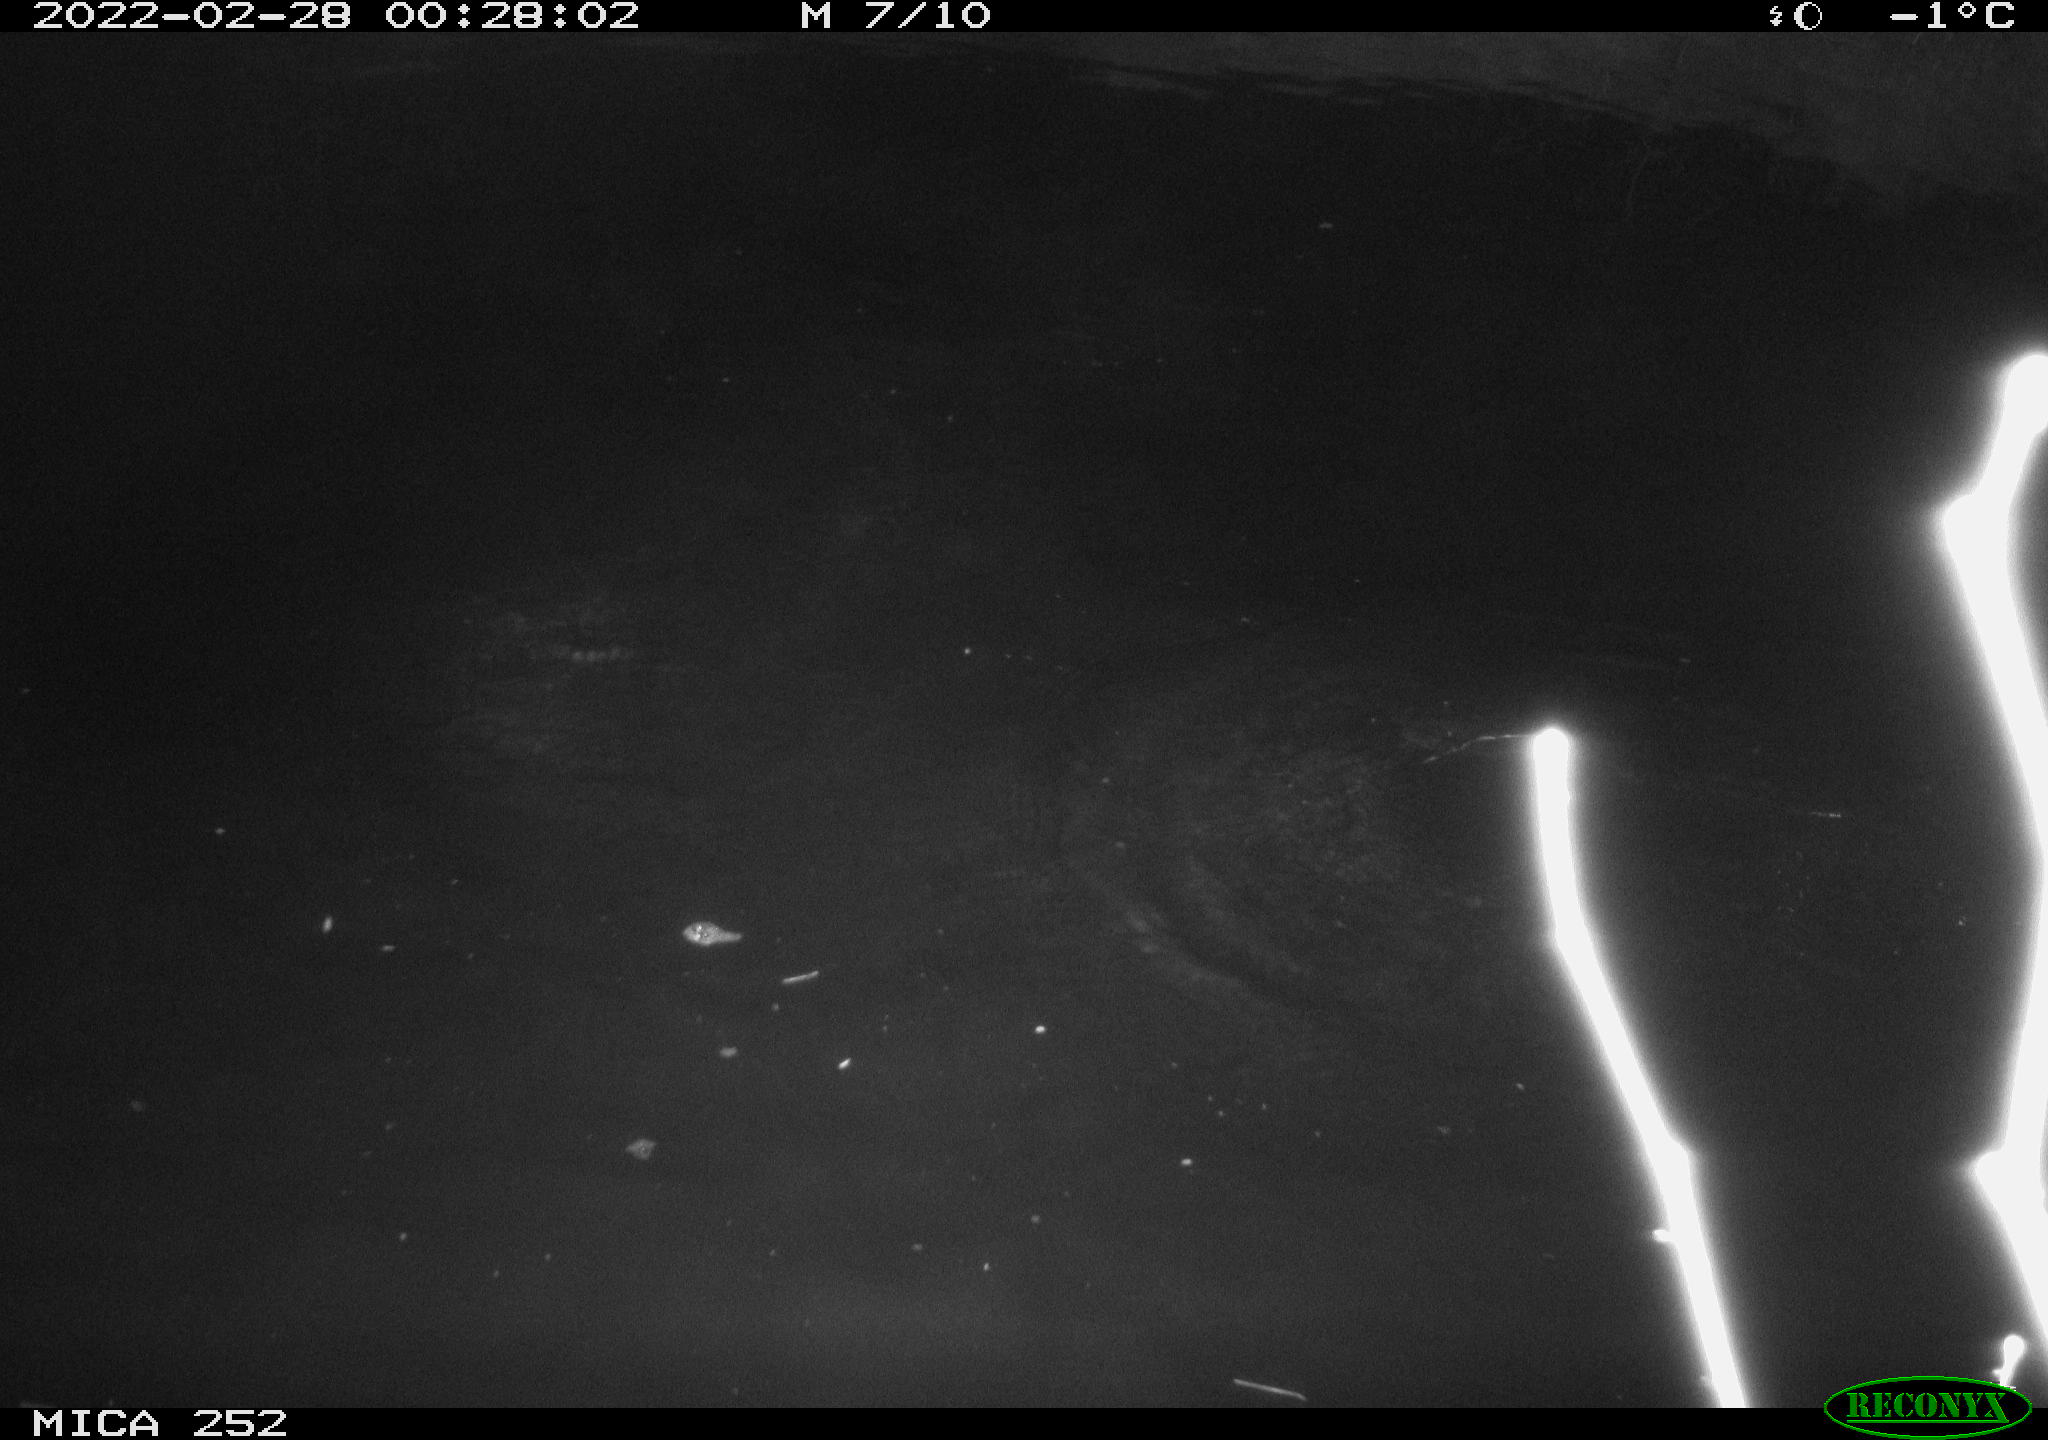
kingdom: Animalia
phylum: Chordata
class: Mammalia
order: Rodentia
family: Castoridae
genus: Castor
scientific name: Castor fiber
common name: Eurasian beaver
